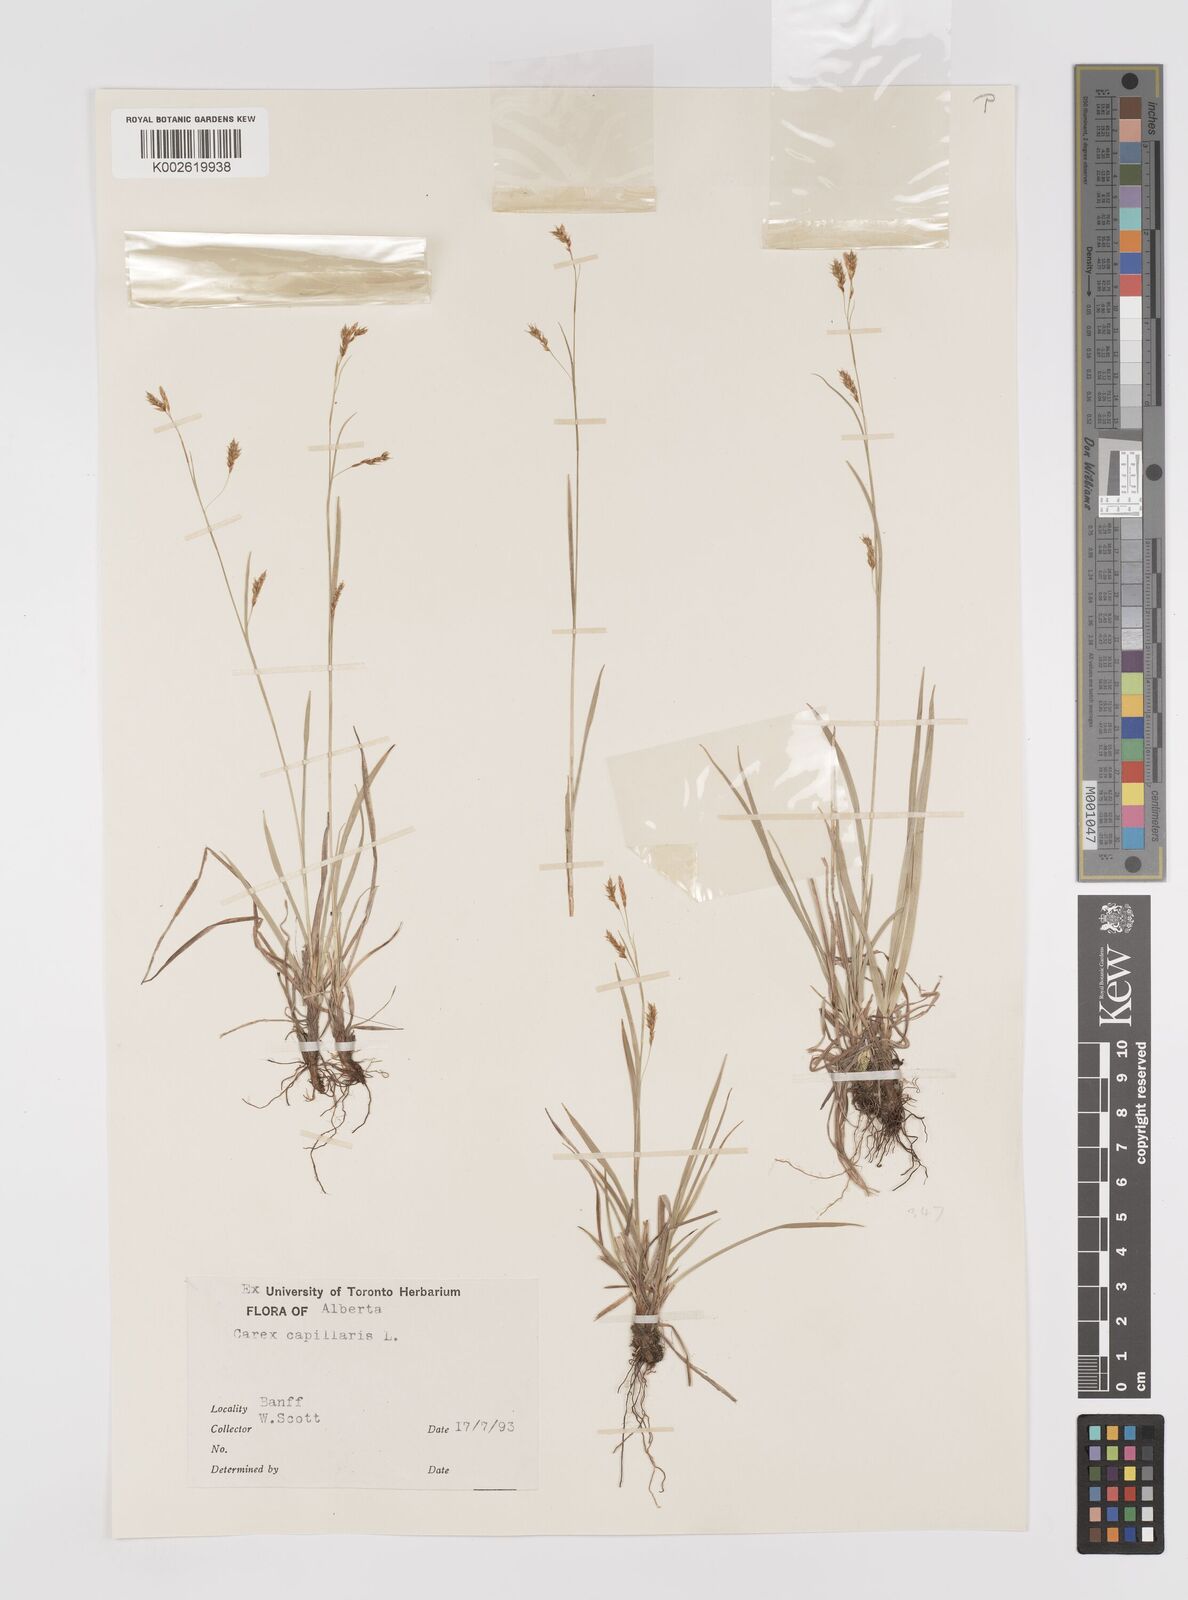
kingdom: Plantae
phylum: Tracheophyta
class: Liliopsida
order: Poales
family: Cyperaceae
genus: Carex
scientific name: Carex capillaris
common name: Hair sedge
